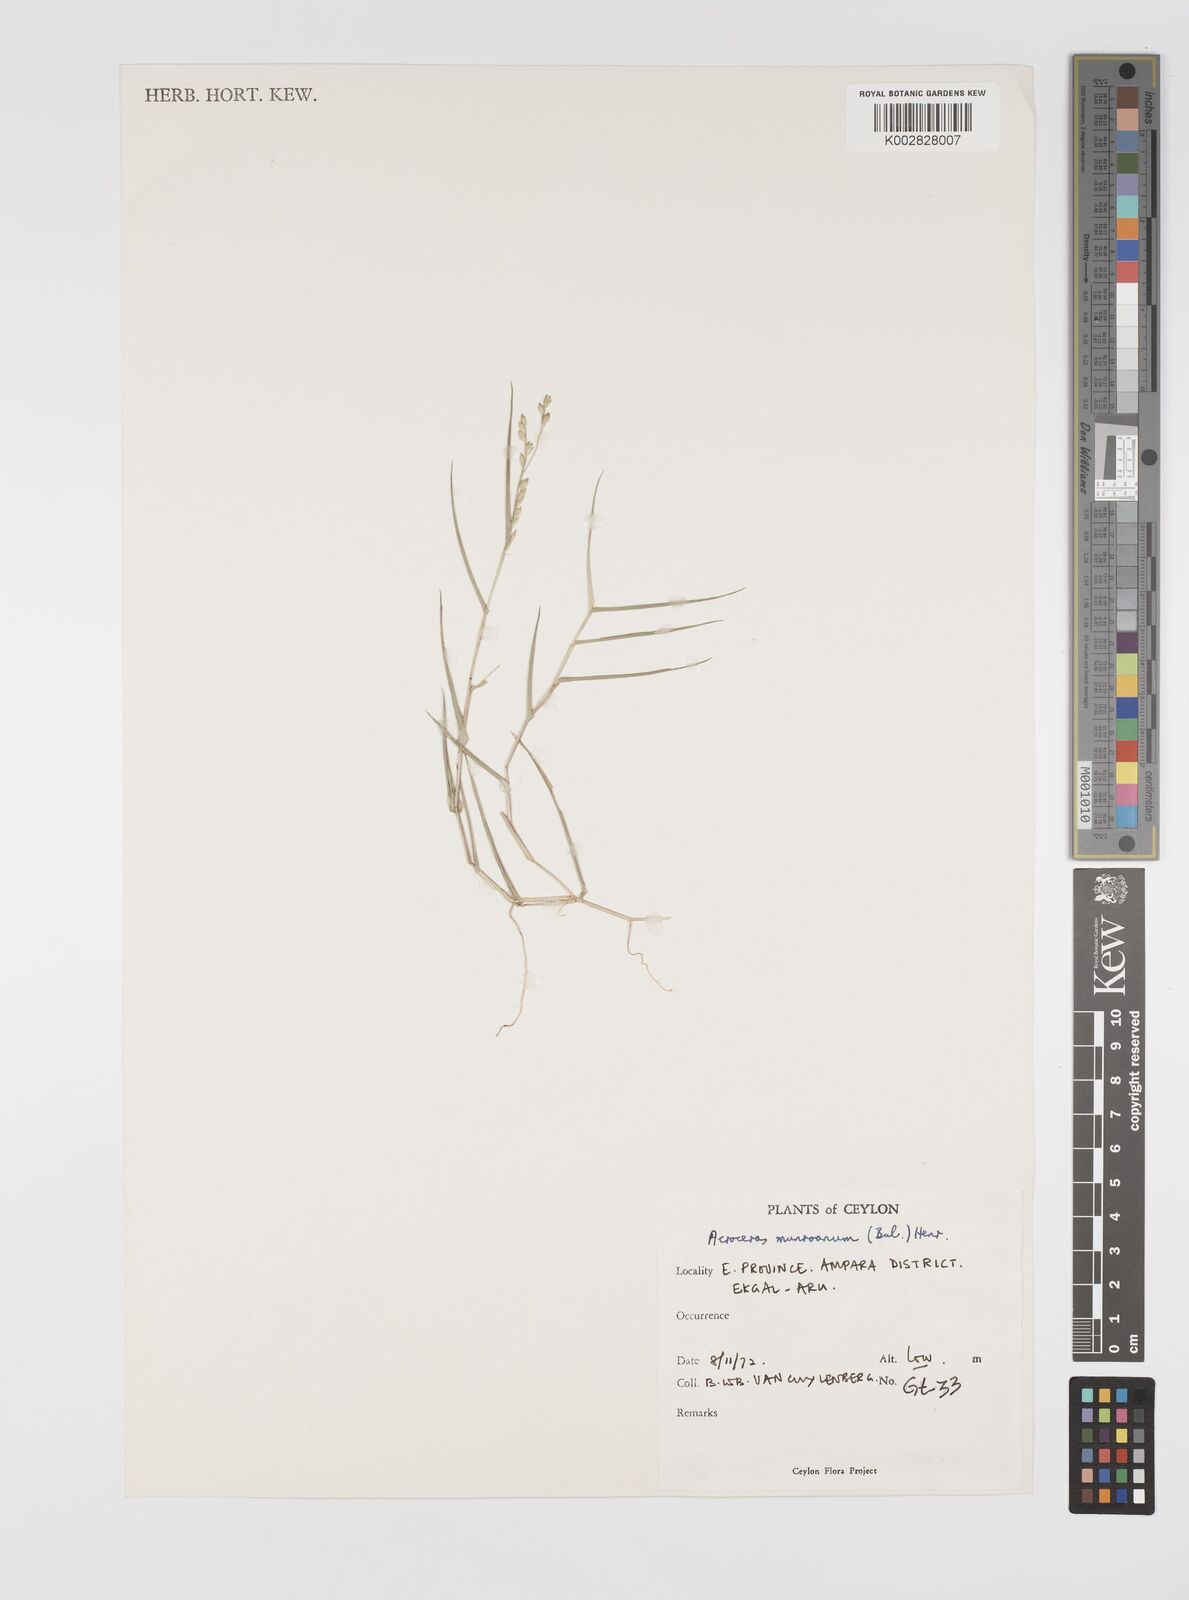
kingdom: Plantae
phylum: Tracheophyta
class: Liliopsida
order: Poales
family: Poaceae
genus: Acroceras
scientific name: Acroceras munroanum
